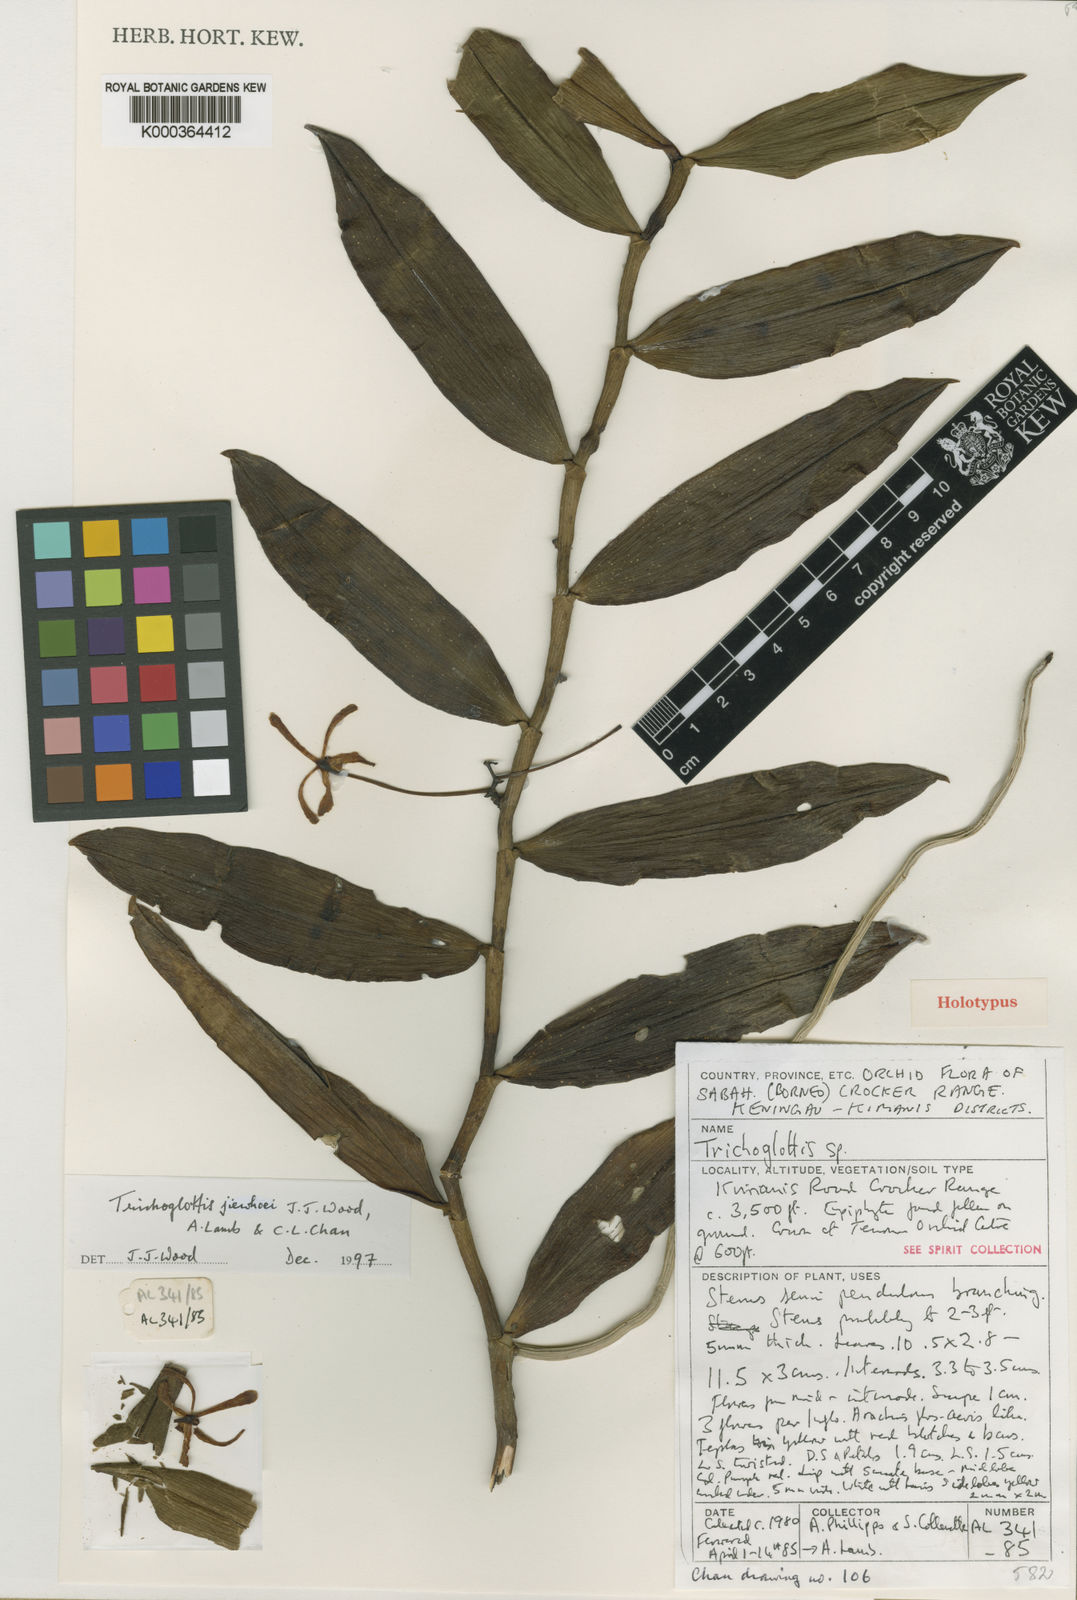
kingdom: Plantae
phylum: Tracheophyta
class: Liliopsida
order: Asparagales
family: Orchidaceae
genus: Trichoglottis
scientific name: Trichoglottis jiewhoei
